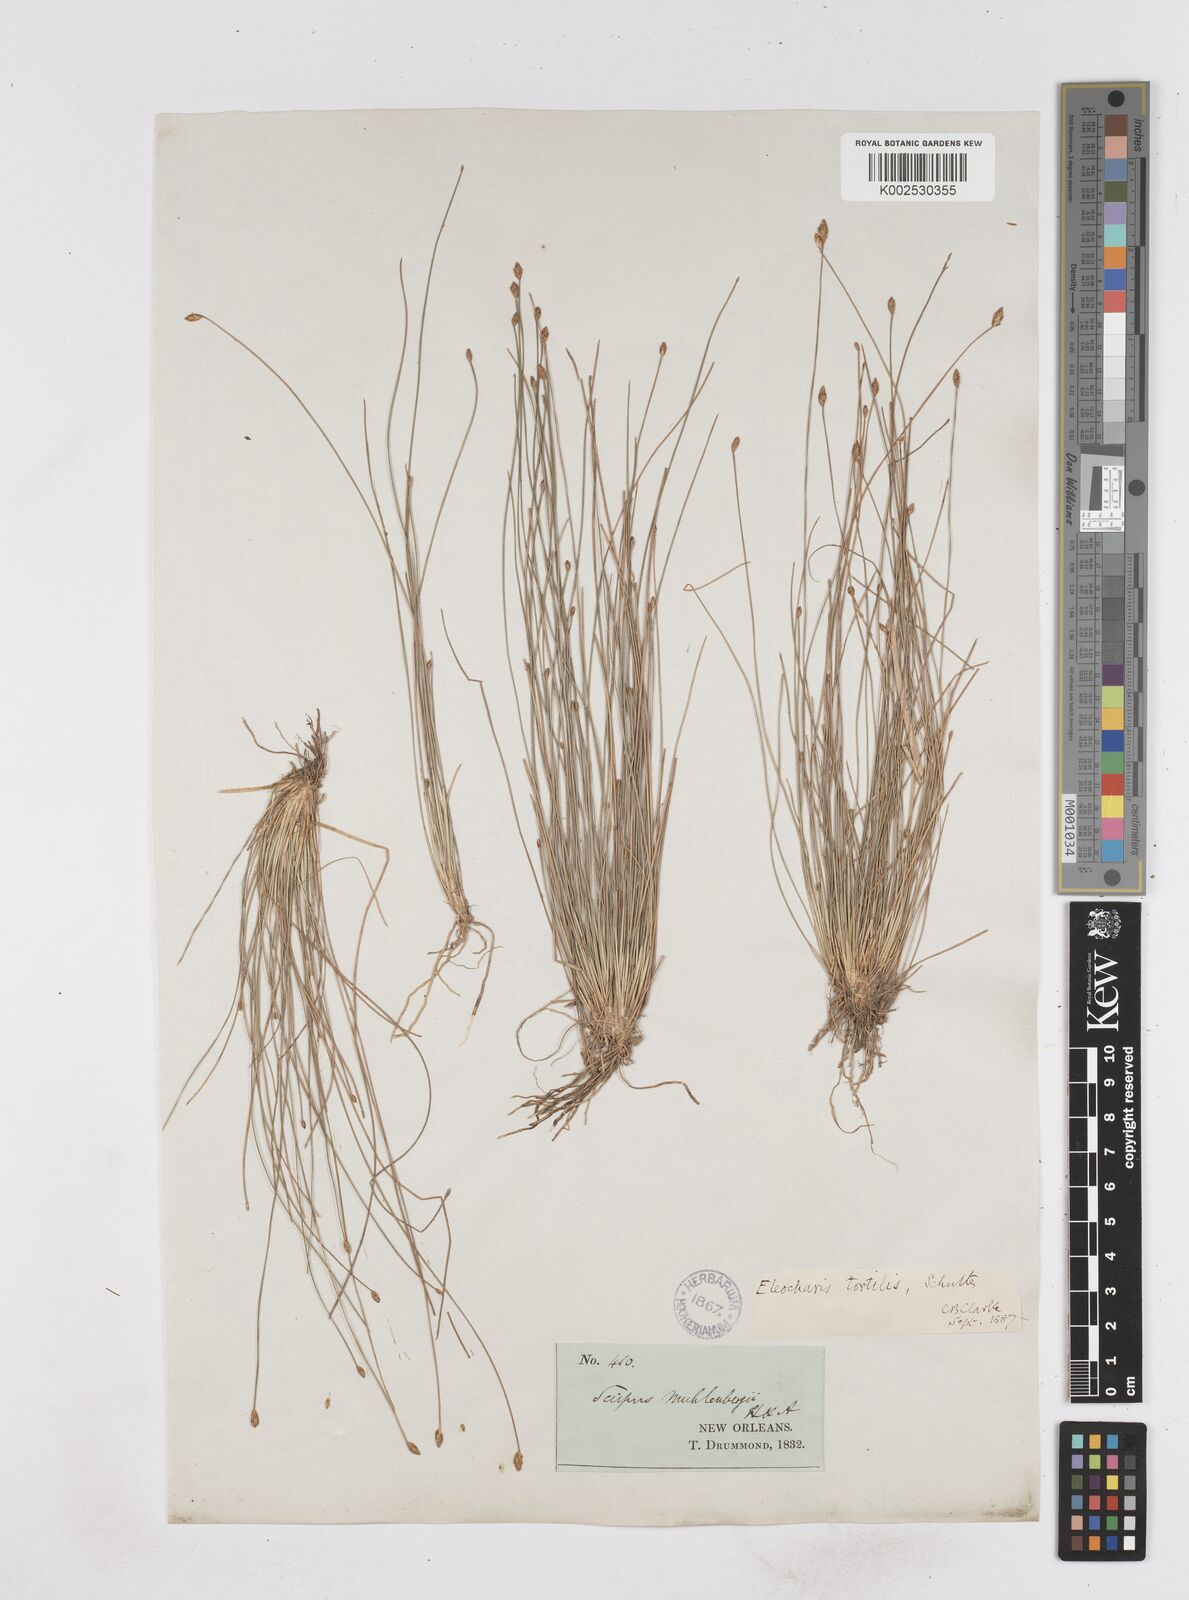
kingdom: Plantae
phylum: Tracheophyta
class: Liliopsida
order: Poales
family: Cyperaceae
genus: Eleocharis
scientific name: Eleocharis tortilis
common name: Twisted spike sedge
